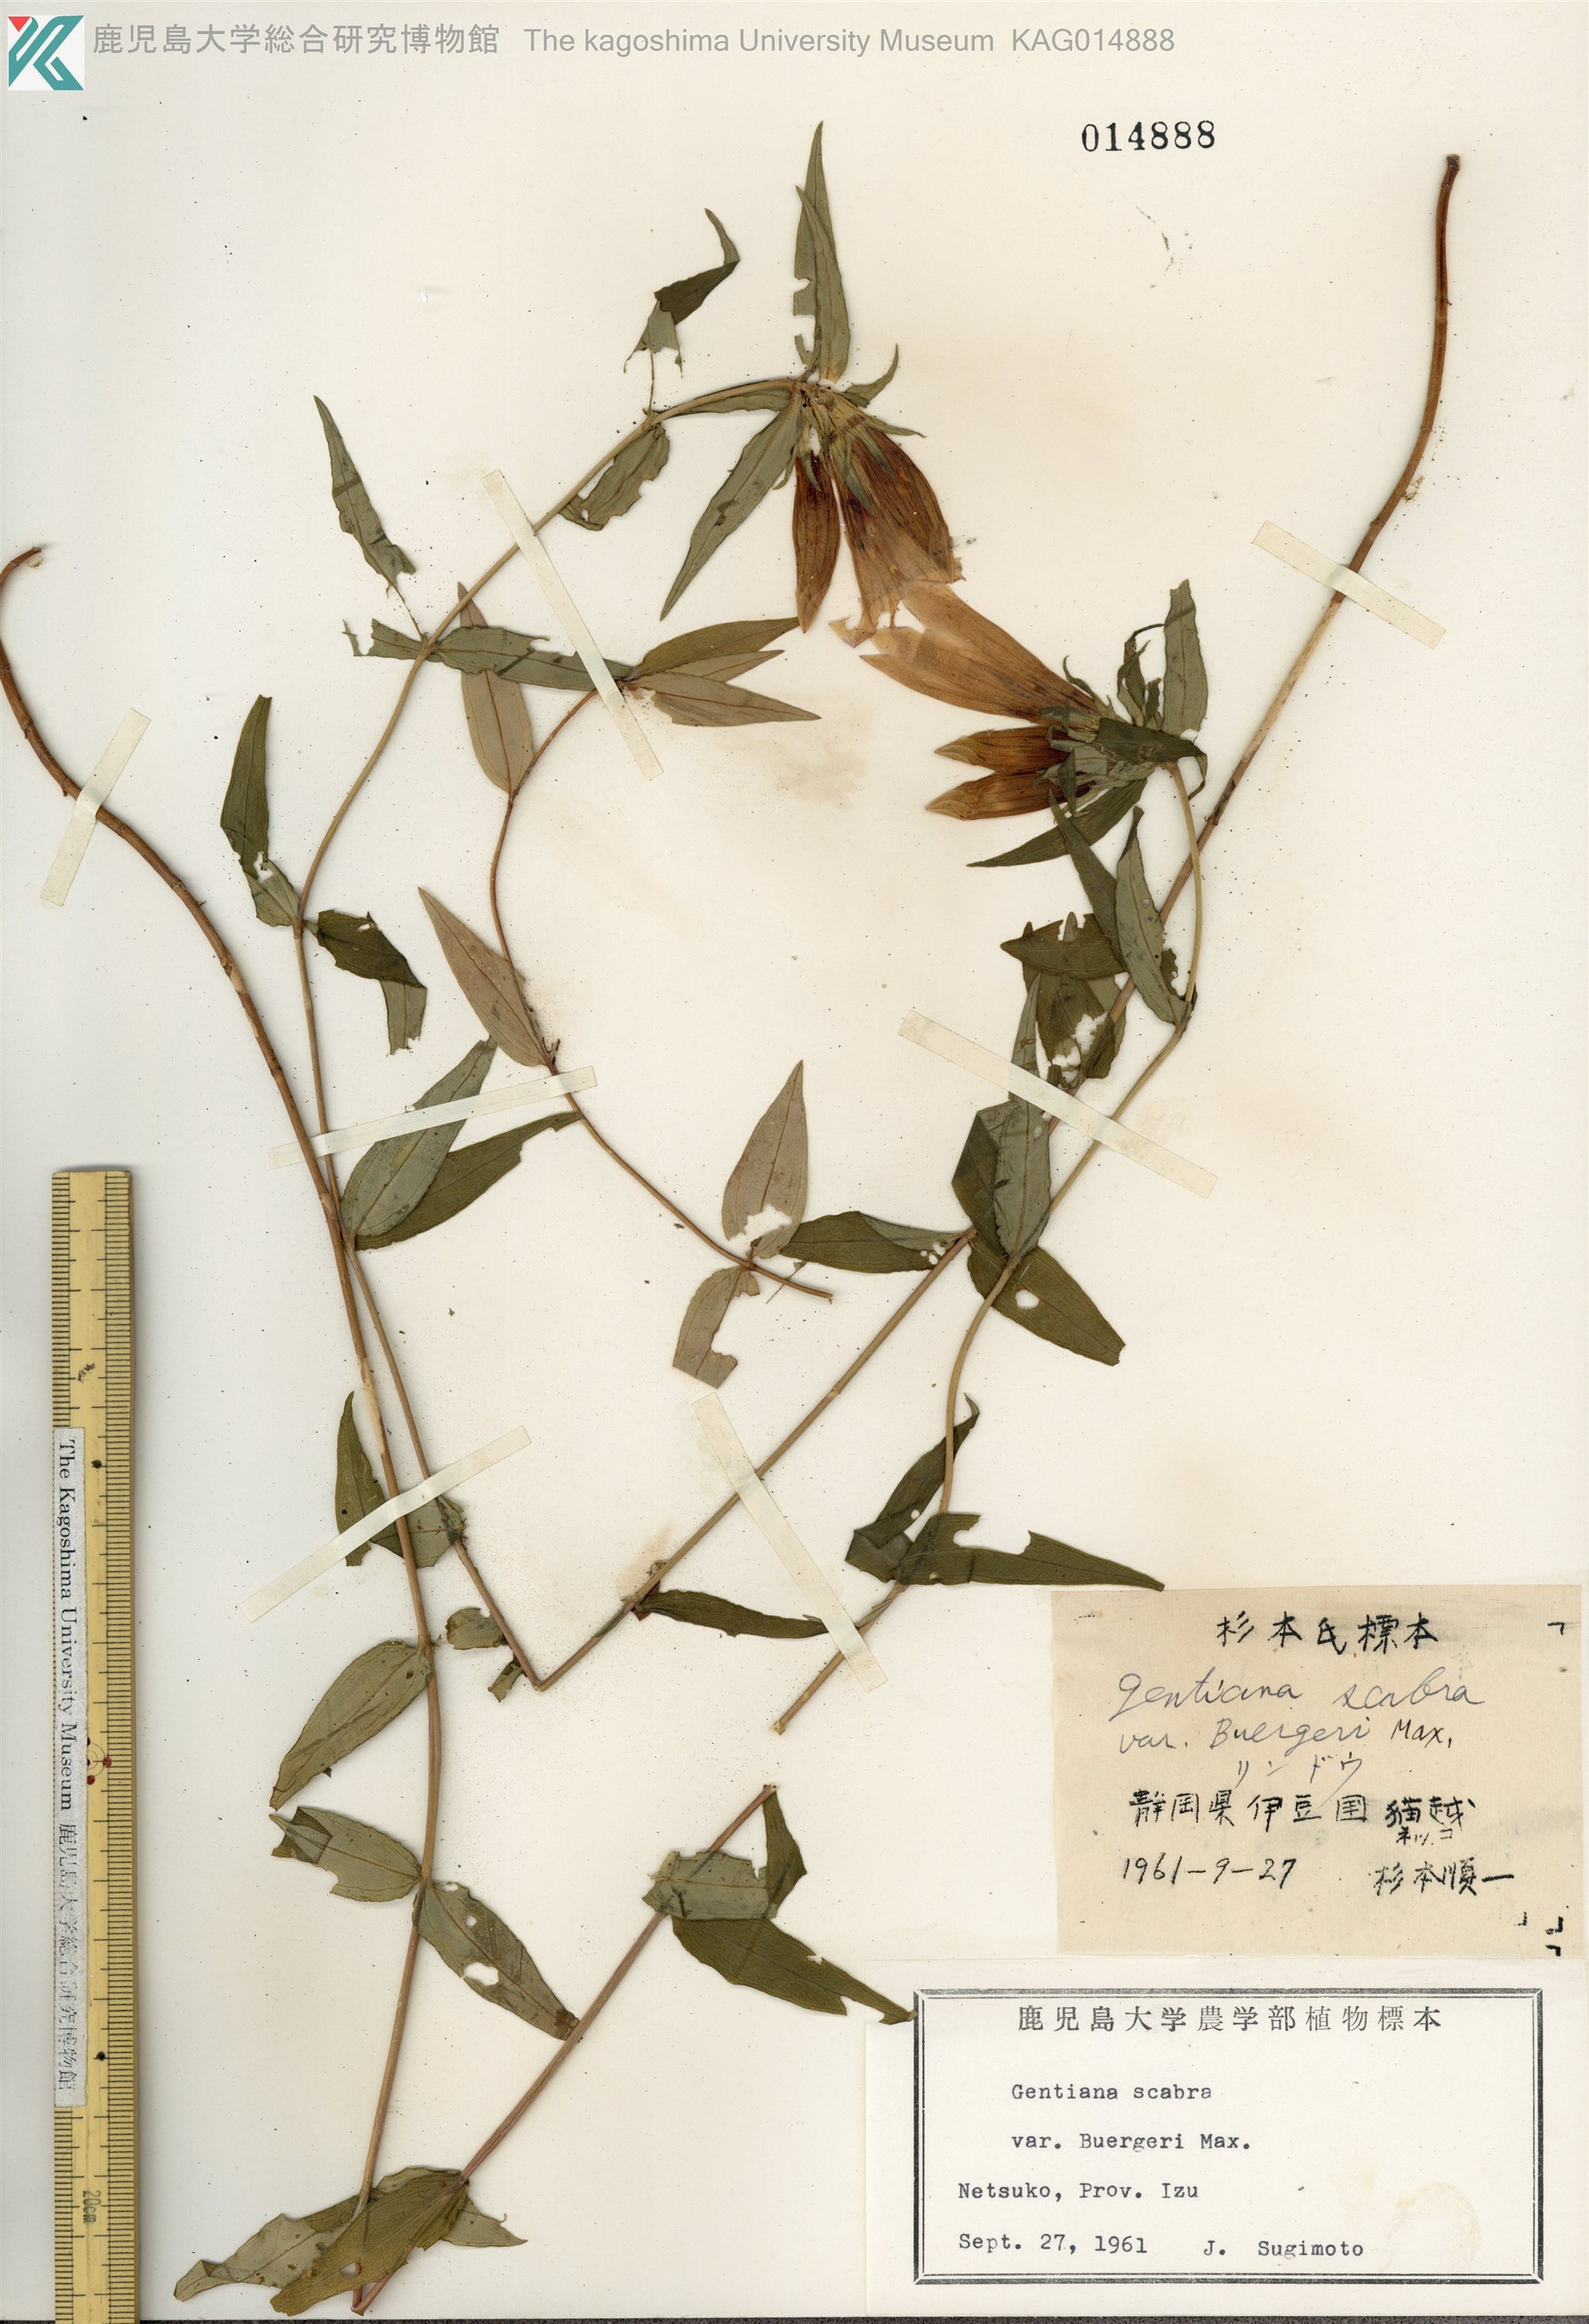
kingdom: Plantae
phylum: Tracheophyta
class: Magnoliopsida
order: Gentianales
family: Gentianaceae
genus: Gentiana
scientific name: Gentiana scabra
